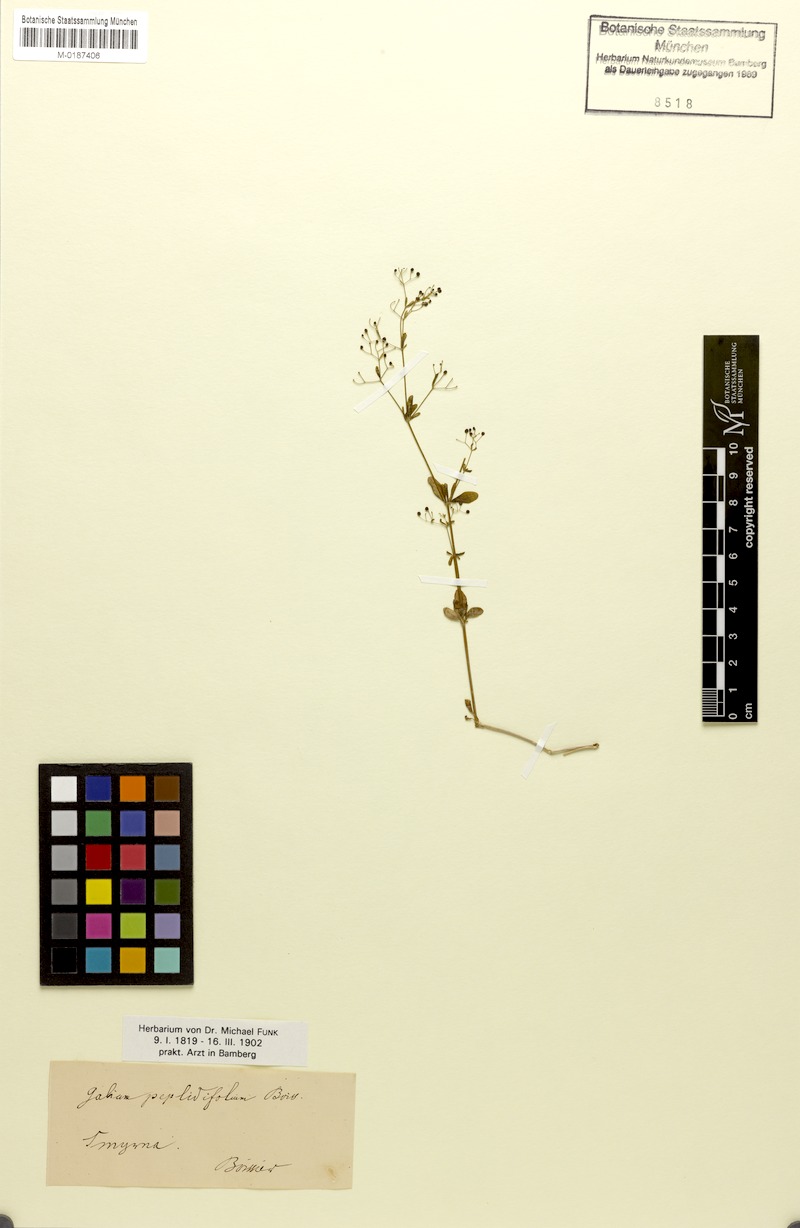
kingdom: Plantae
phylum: Tracheophyta
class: Magnoliopsida
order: Gentianales
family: Rubiaceae
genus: Galium
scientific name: Galium peplidifolium
